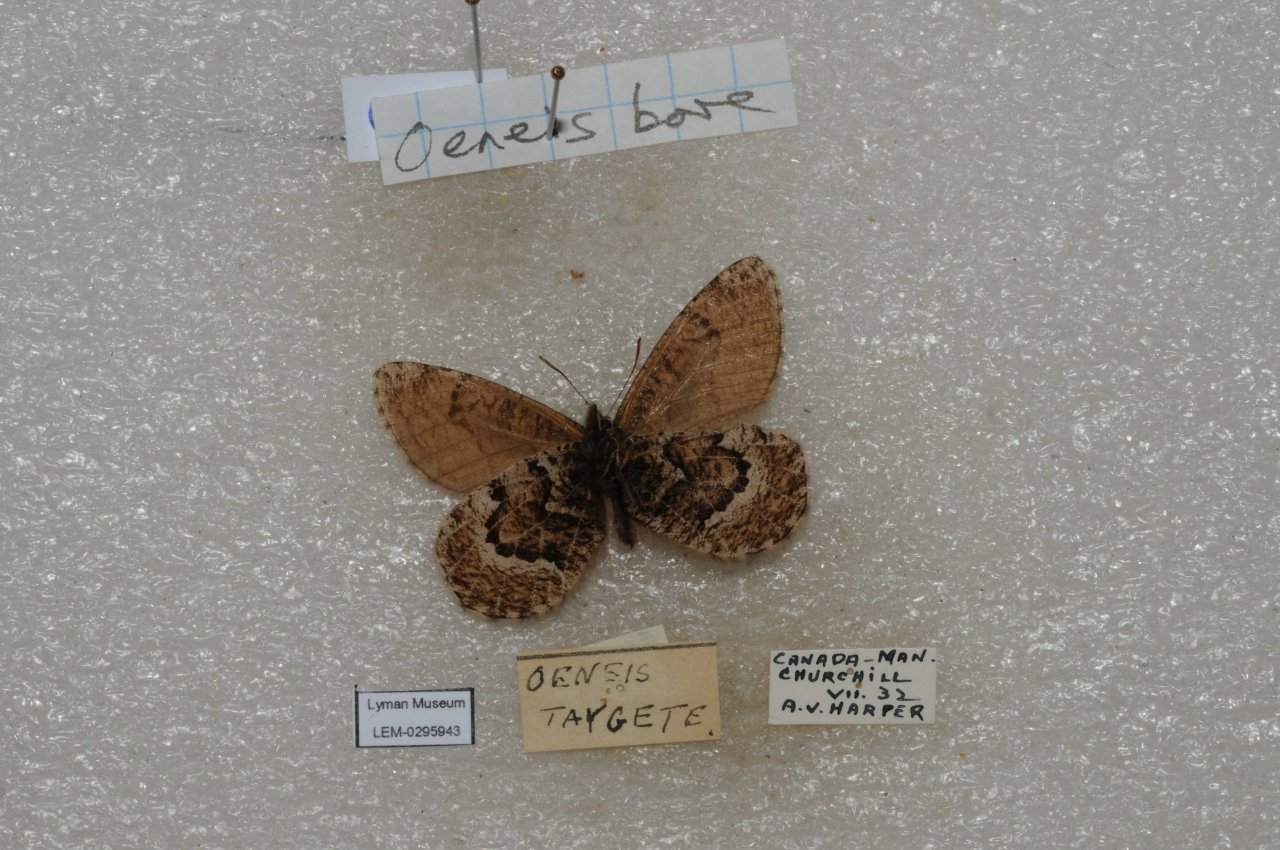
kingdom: Animalia
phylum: Arthropoda
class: Insecta
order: Lepidoptera
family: Nymphalidae
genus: Oeneis
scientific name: Oeneis bore
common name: White-veined Arctic
